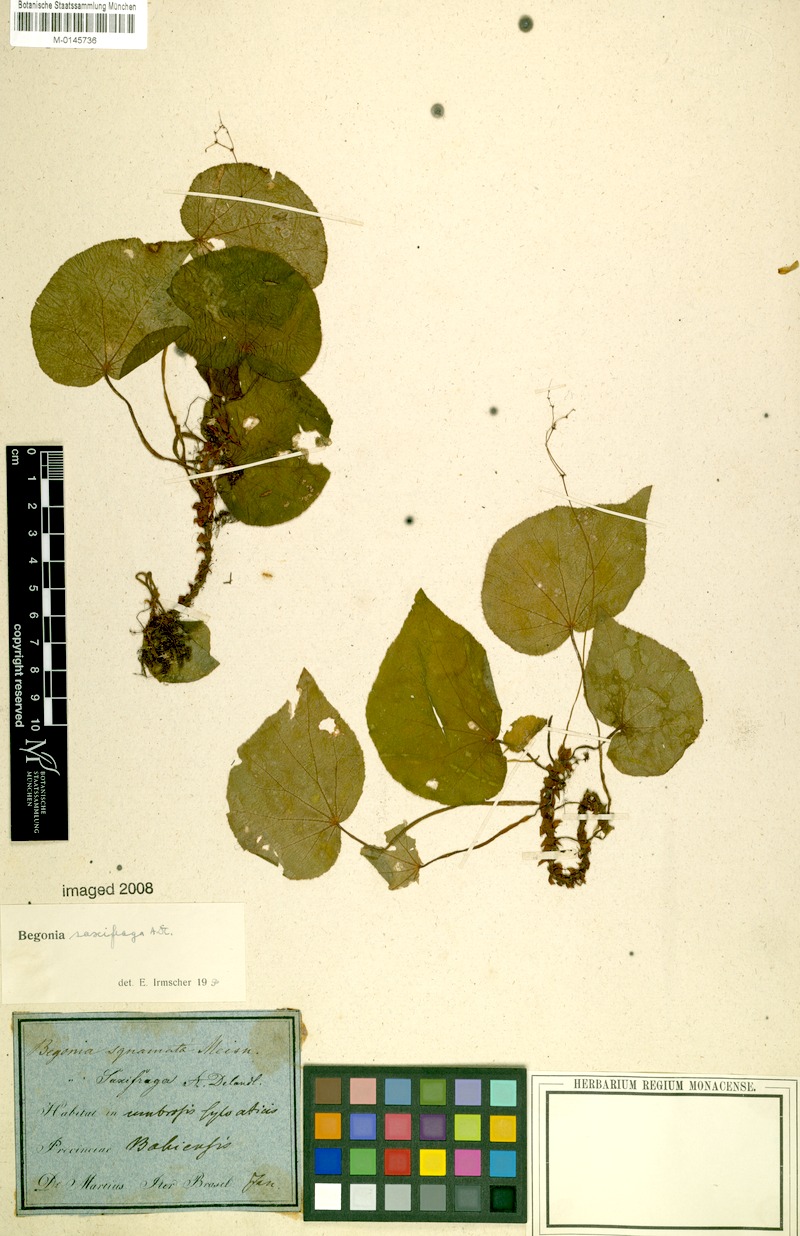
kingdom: Plantae
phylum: Tracheophyta
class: Magnoliopsida
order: Cucurbitales
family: Begoniaceae
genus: Begonia
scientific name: Begonia saxifraga
